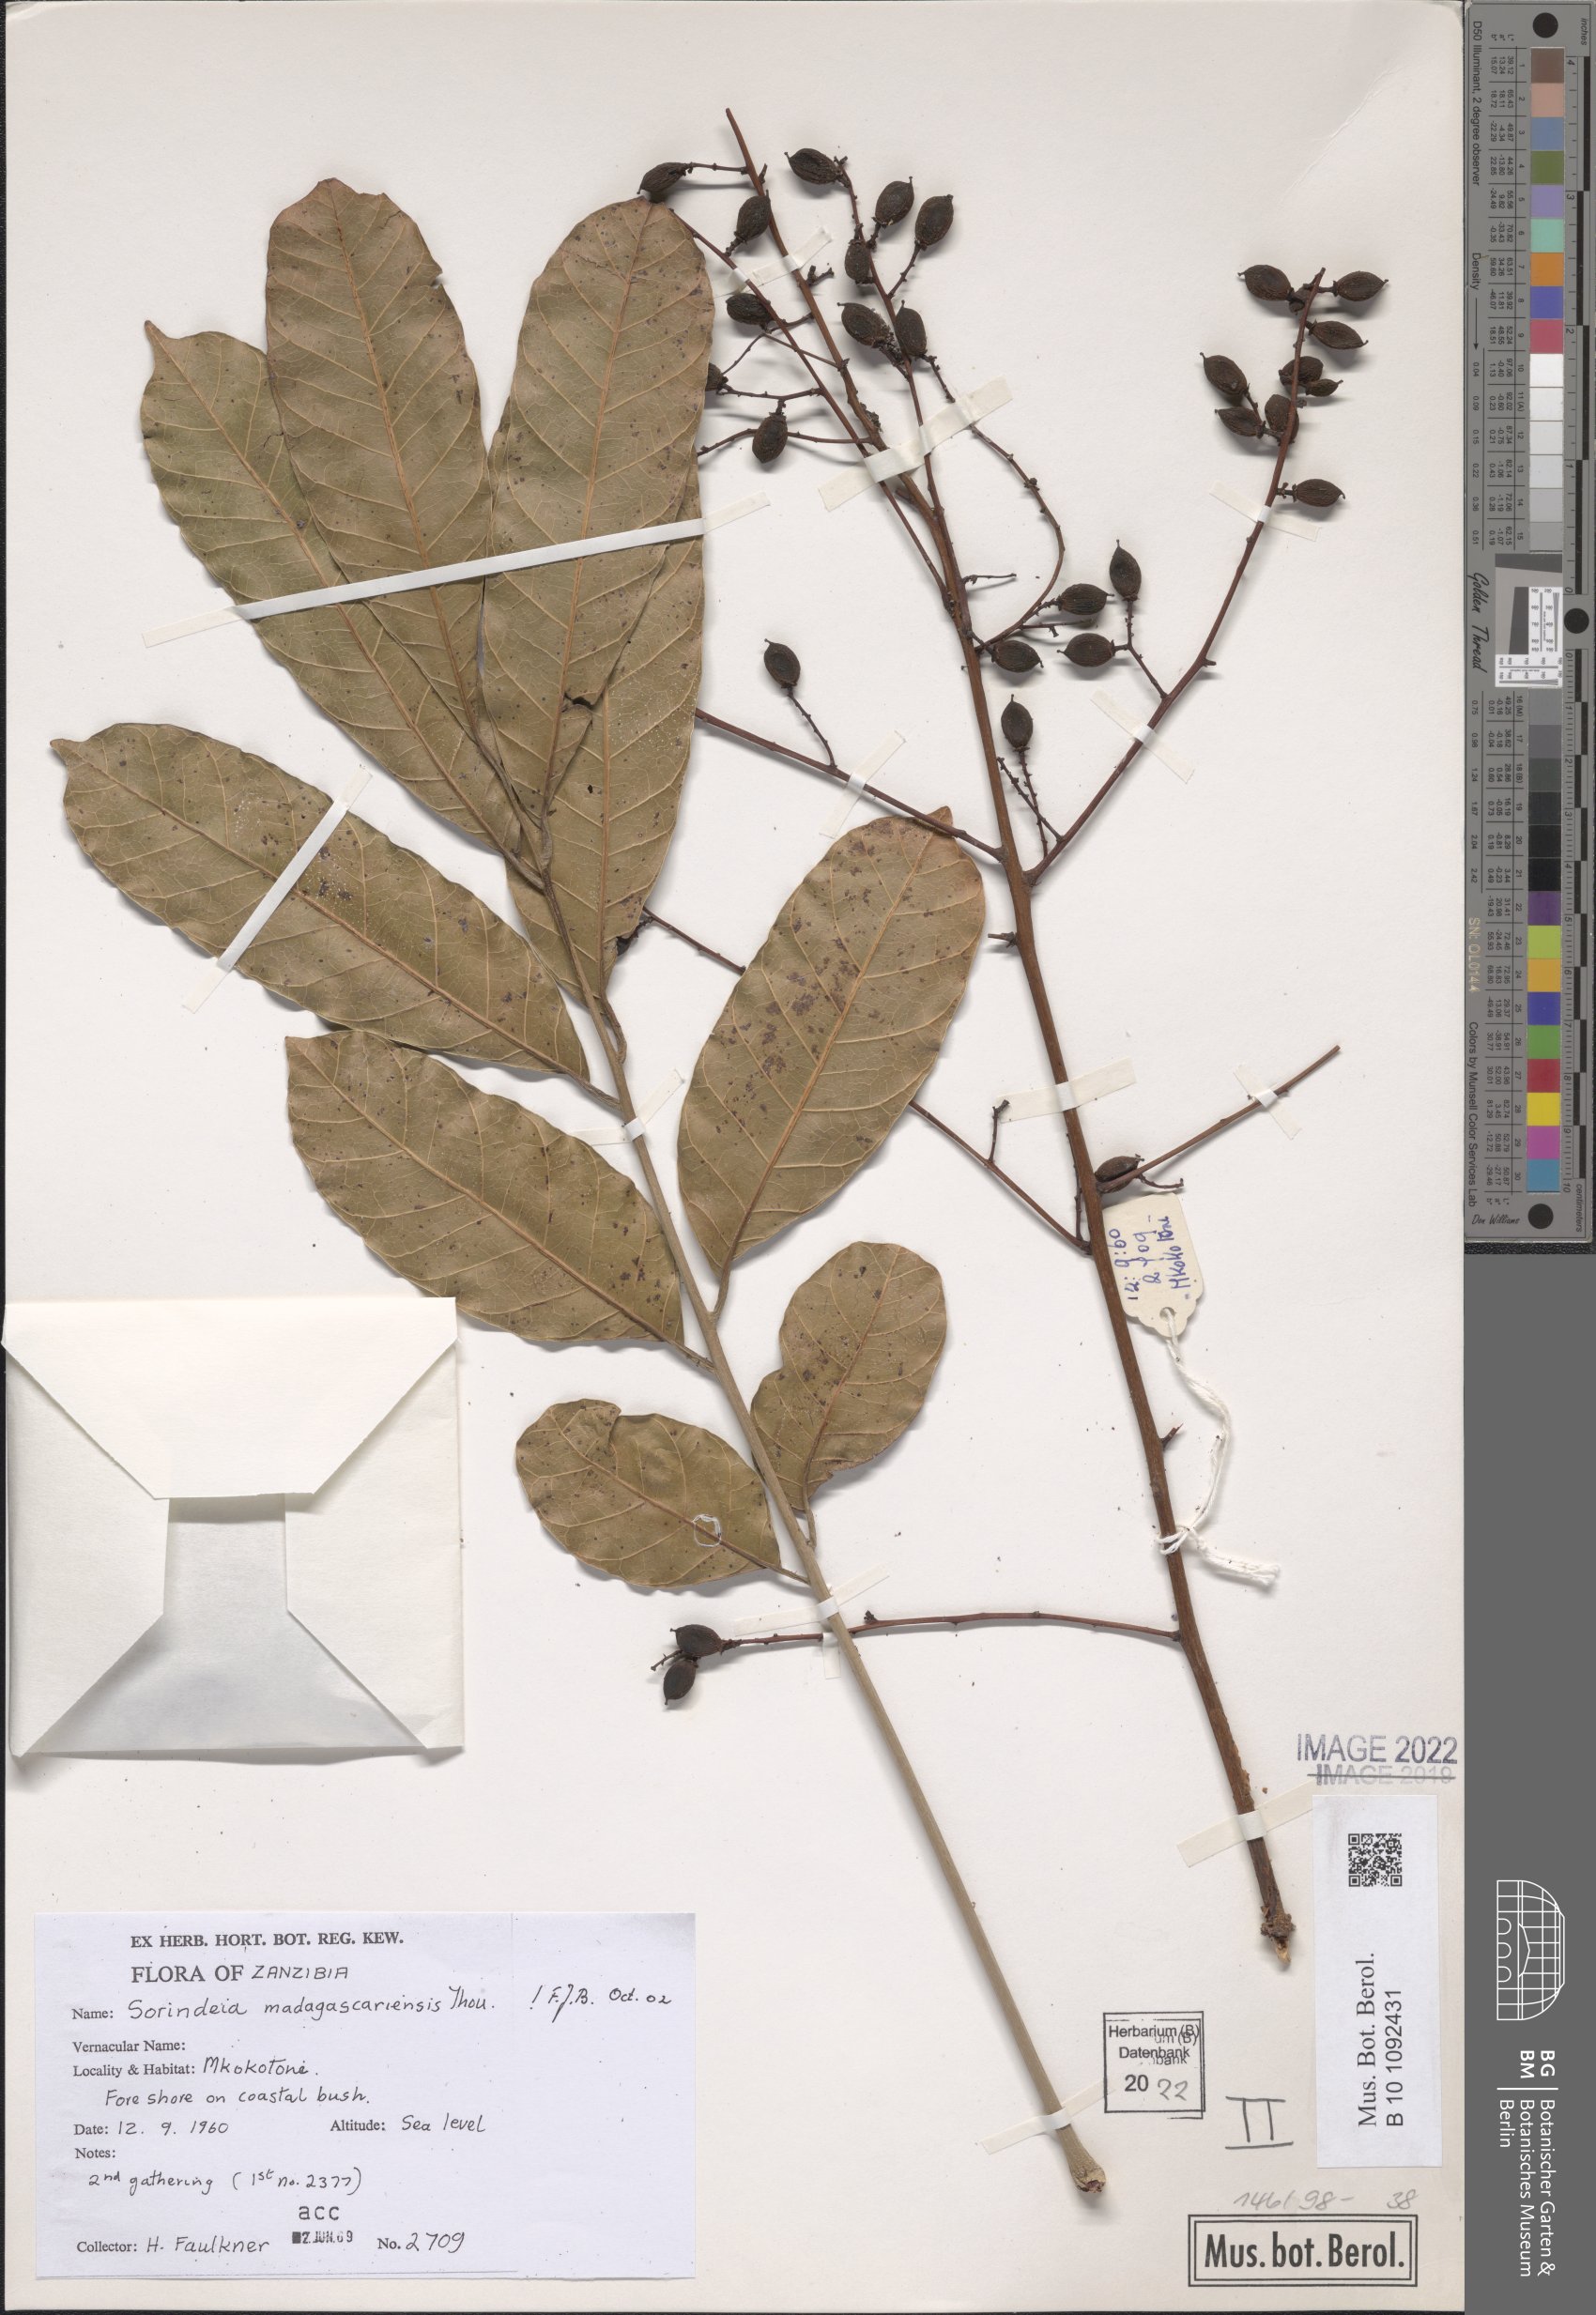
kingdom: Plantae
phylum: Tracheophyta
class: Magnoliopsida
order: Sapindales
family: Anacardiaceae
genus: Sorindeia
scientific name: Sorindeia madagascariensis
